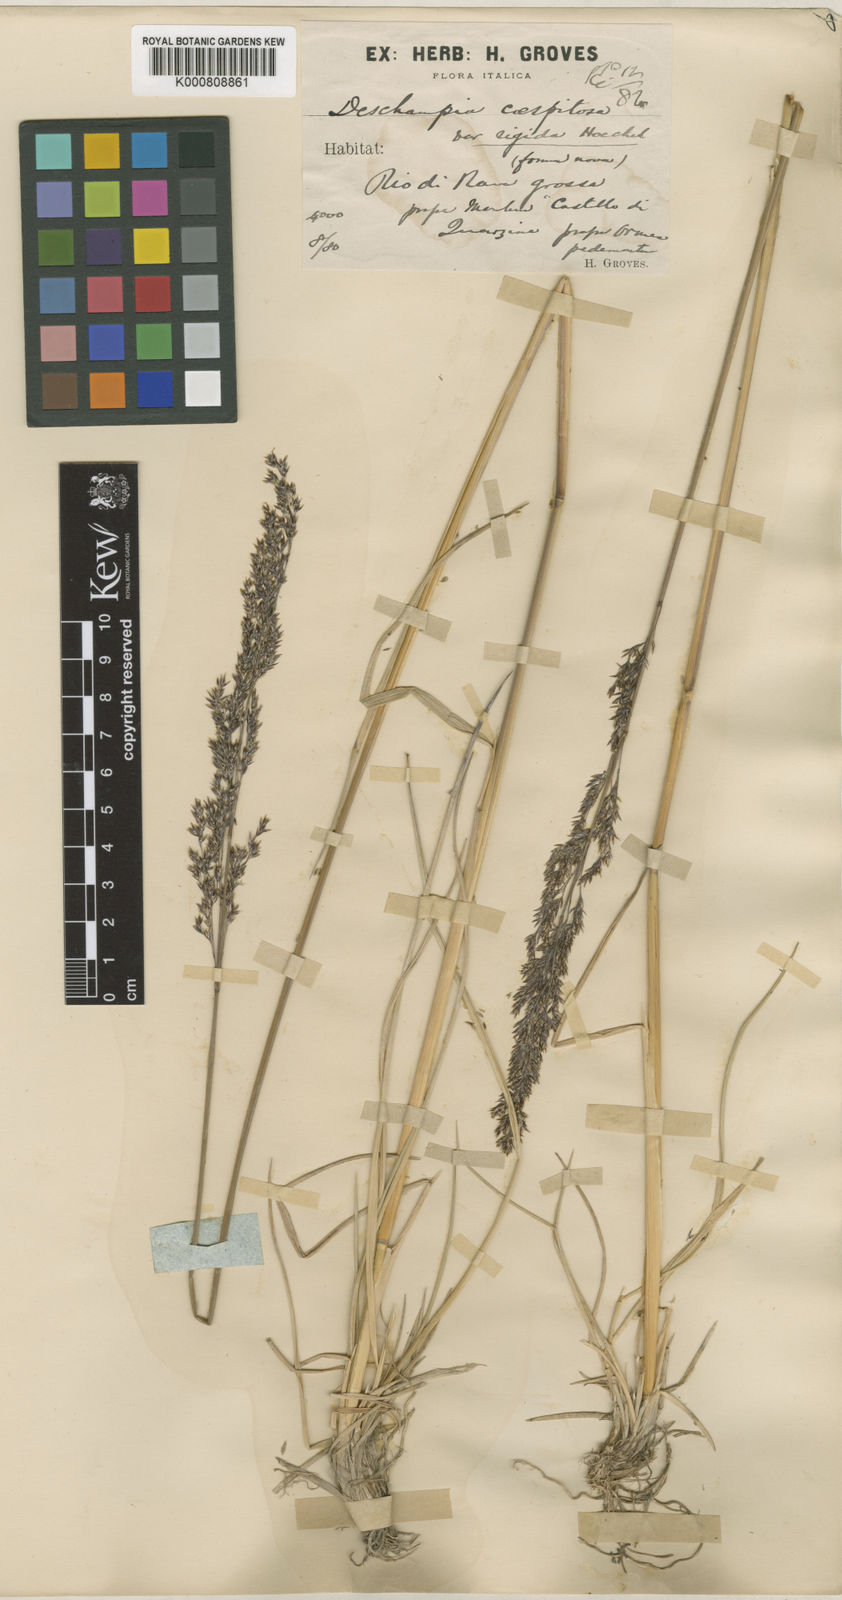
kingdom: Plantae
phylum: Tracheophyta
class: Liliopsida
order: Poales
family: Poaceae
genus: Deschampsia
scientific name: Deschampsia cespitosa
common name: Tufted hair-grass
